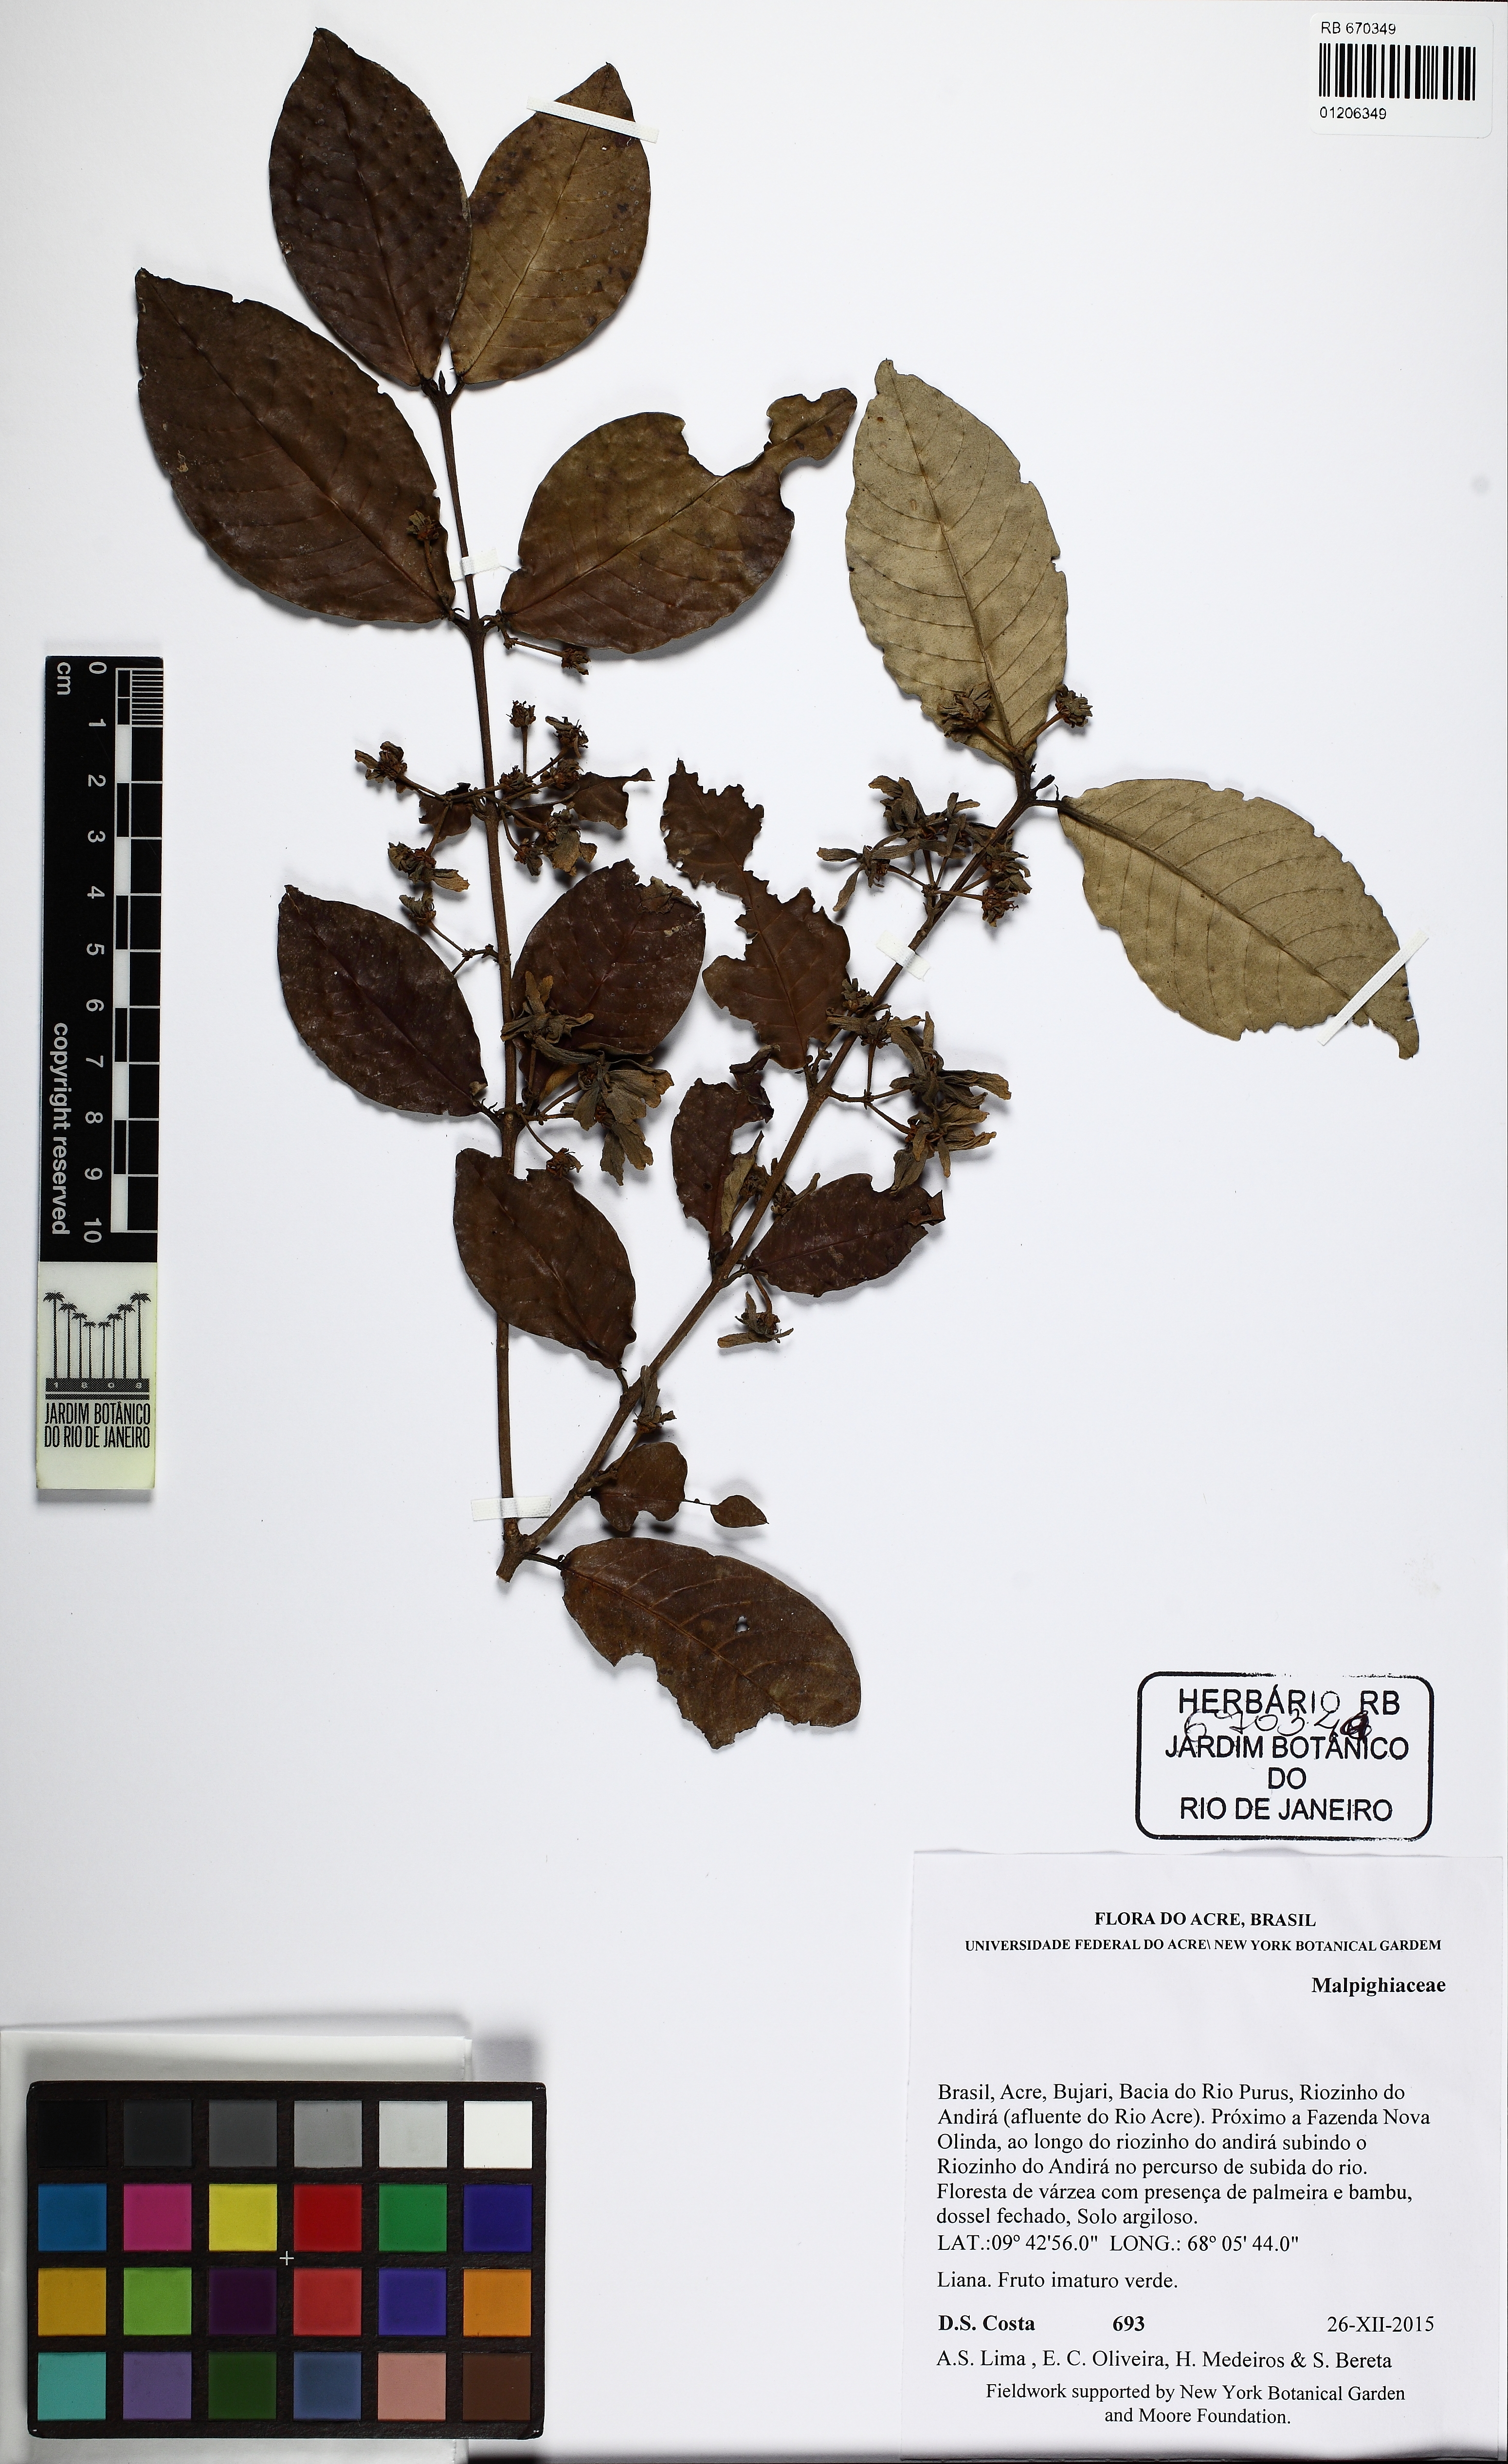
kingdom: Plantae
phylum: Tracheophyta
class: Magnoliopsida
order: Malpighiales
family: Malpighiaceae
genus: Hiraea
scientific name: Hiraea
